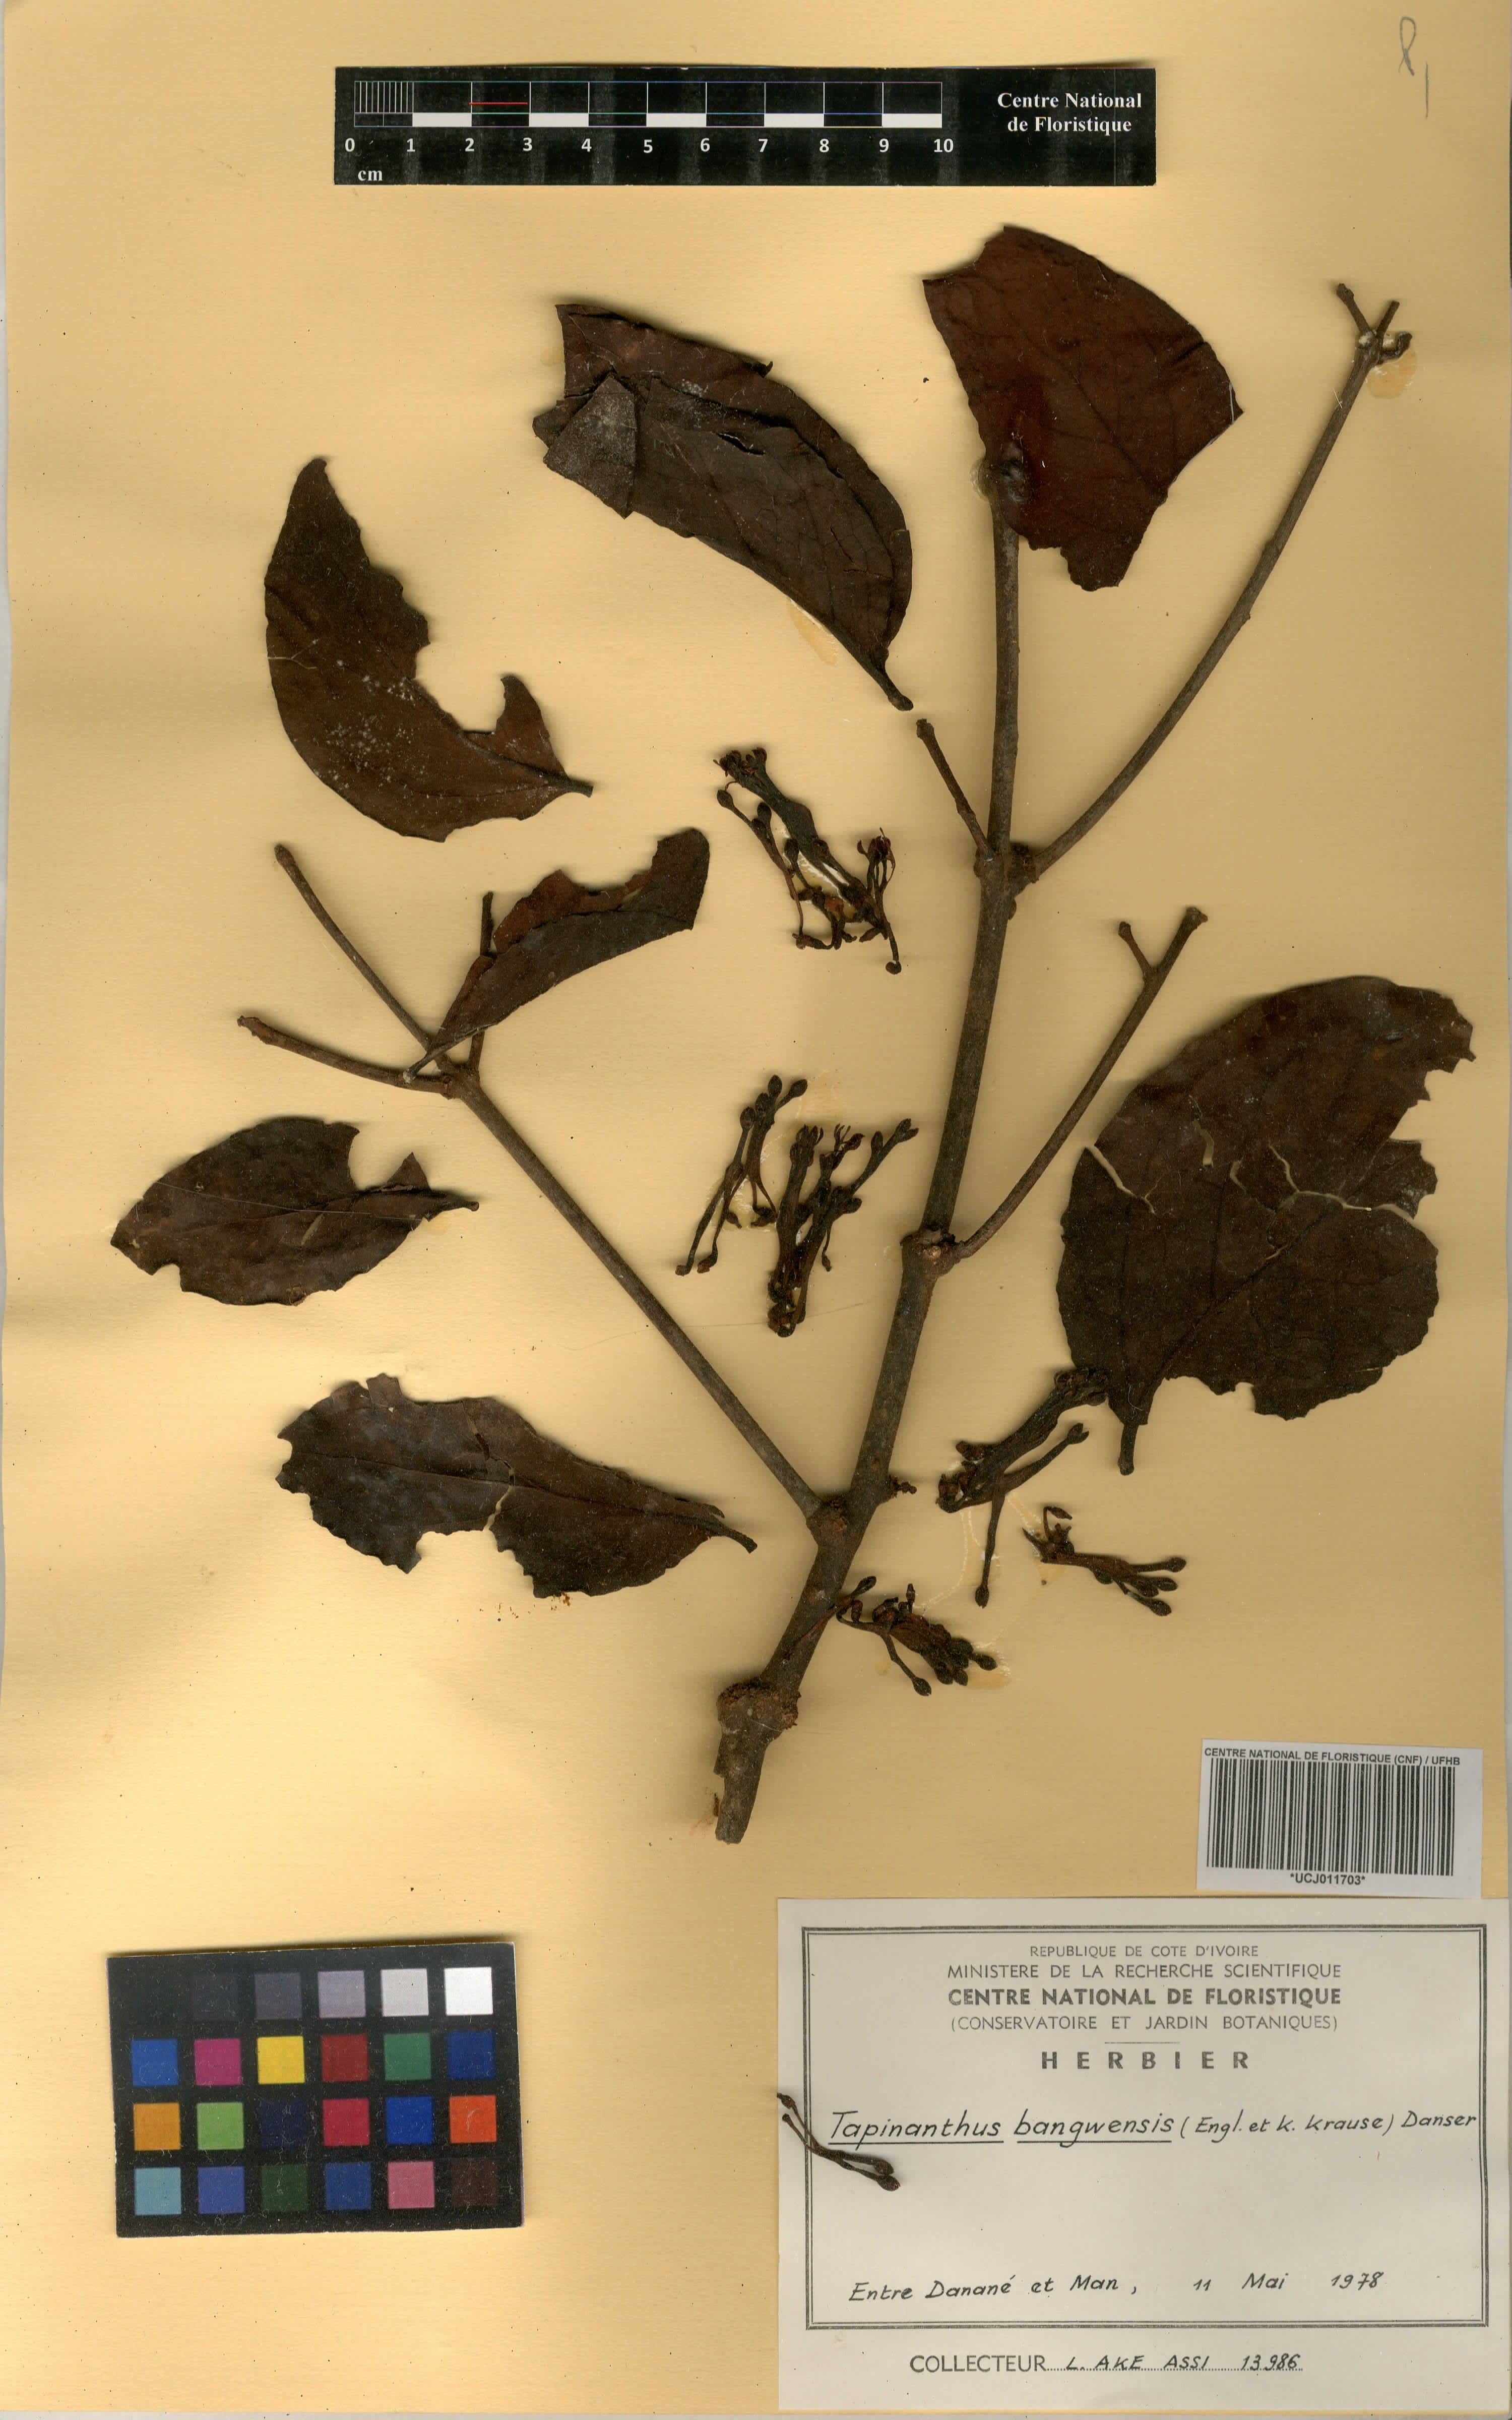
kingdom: Plantae
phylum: Tracheophyta
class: Magnoliopsida
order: Santalales
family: Loranthaceae
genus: Tapinanthus
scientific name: Tapinanthus bangwensis
